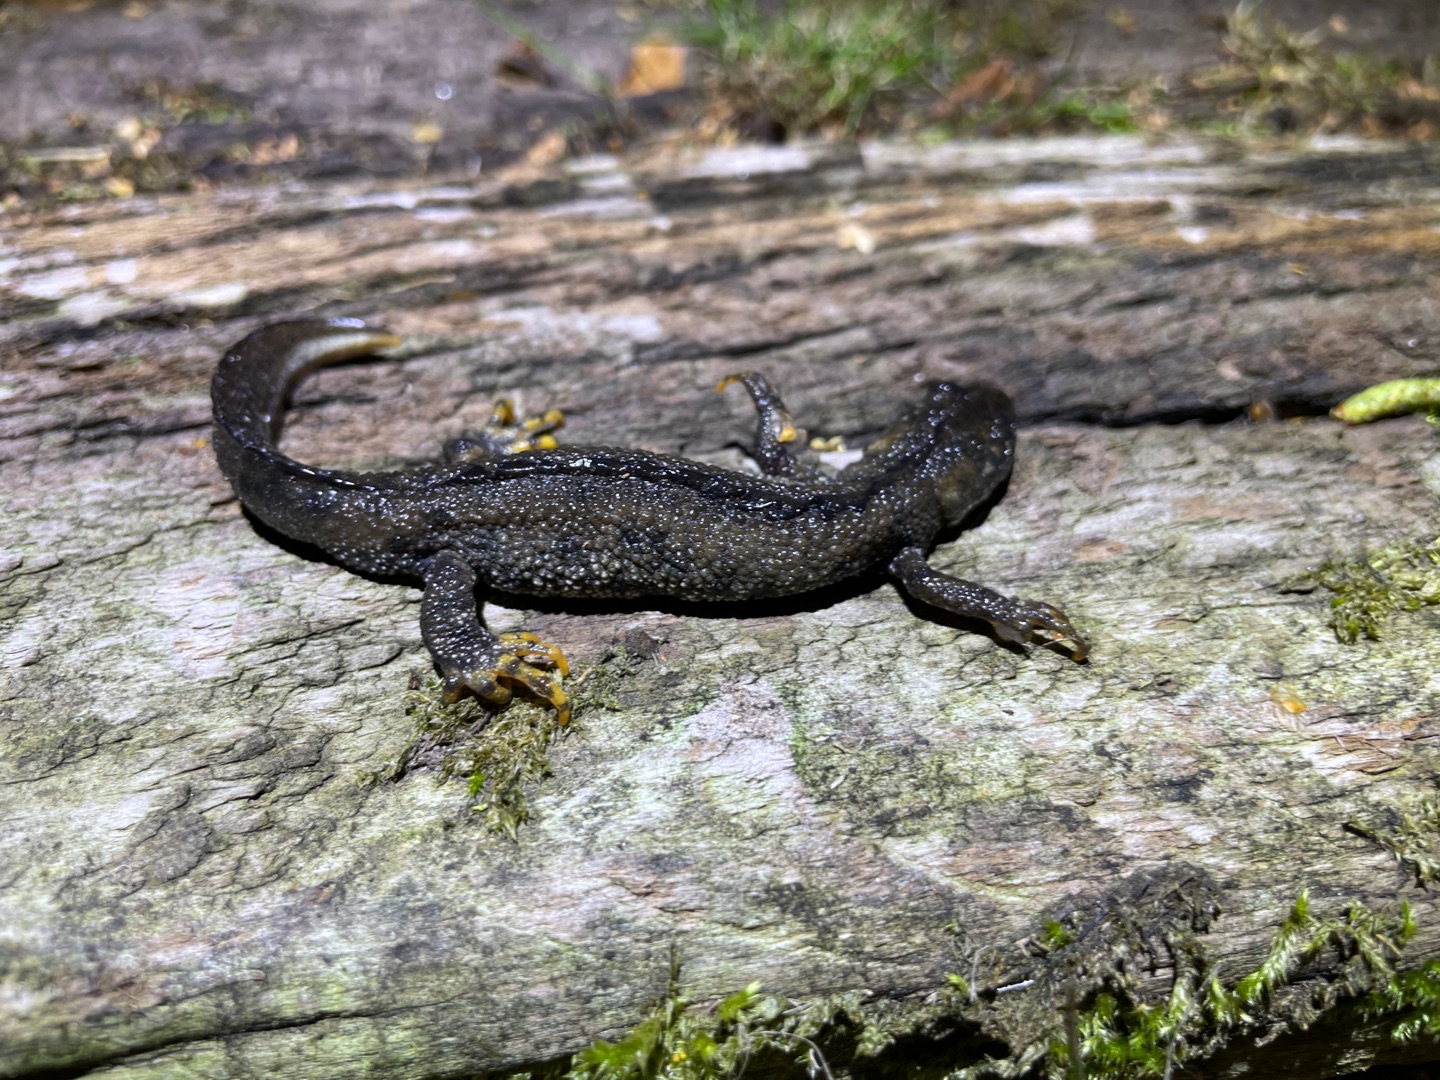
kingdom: Animalia
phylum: Chordata
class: Amphibia
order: Caudata
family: Salamandridae
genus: Triturus
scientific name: Triturus cristatus
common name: Stor vandsalamander
